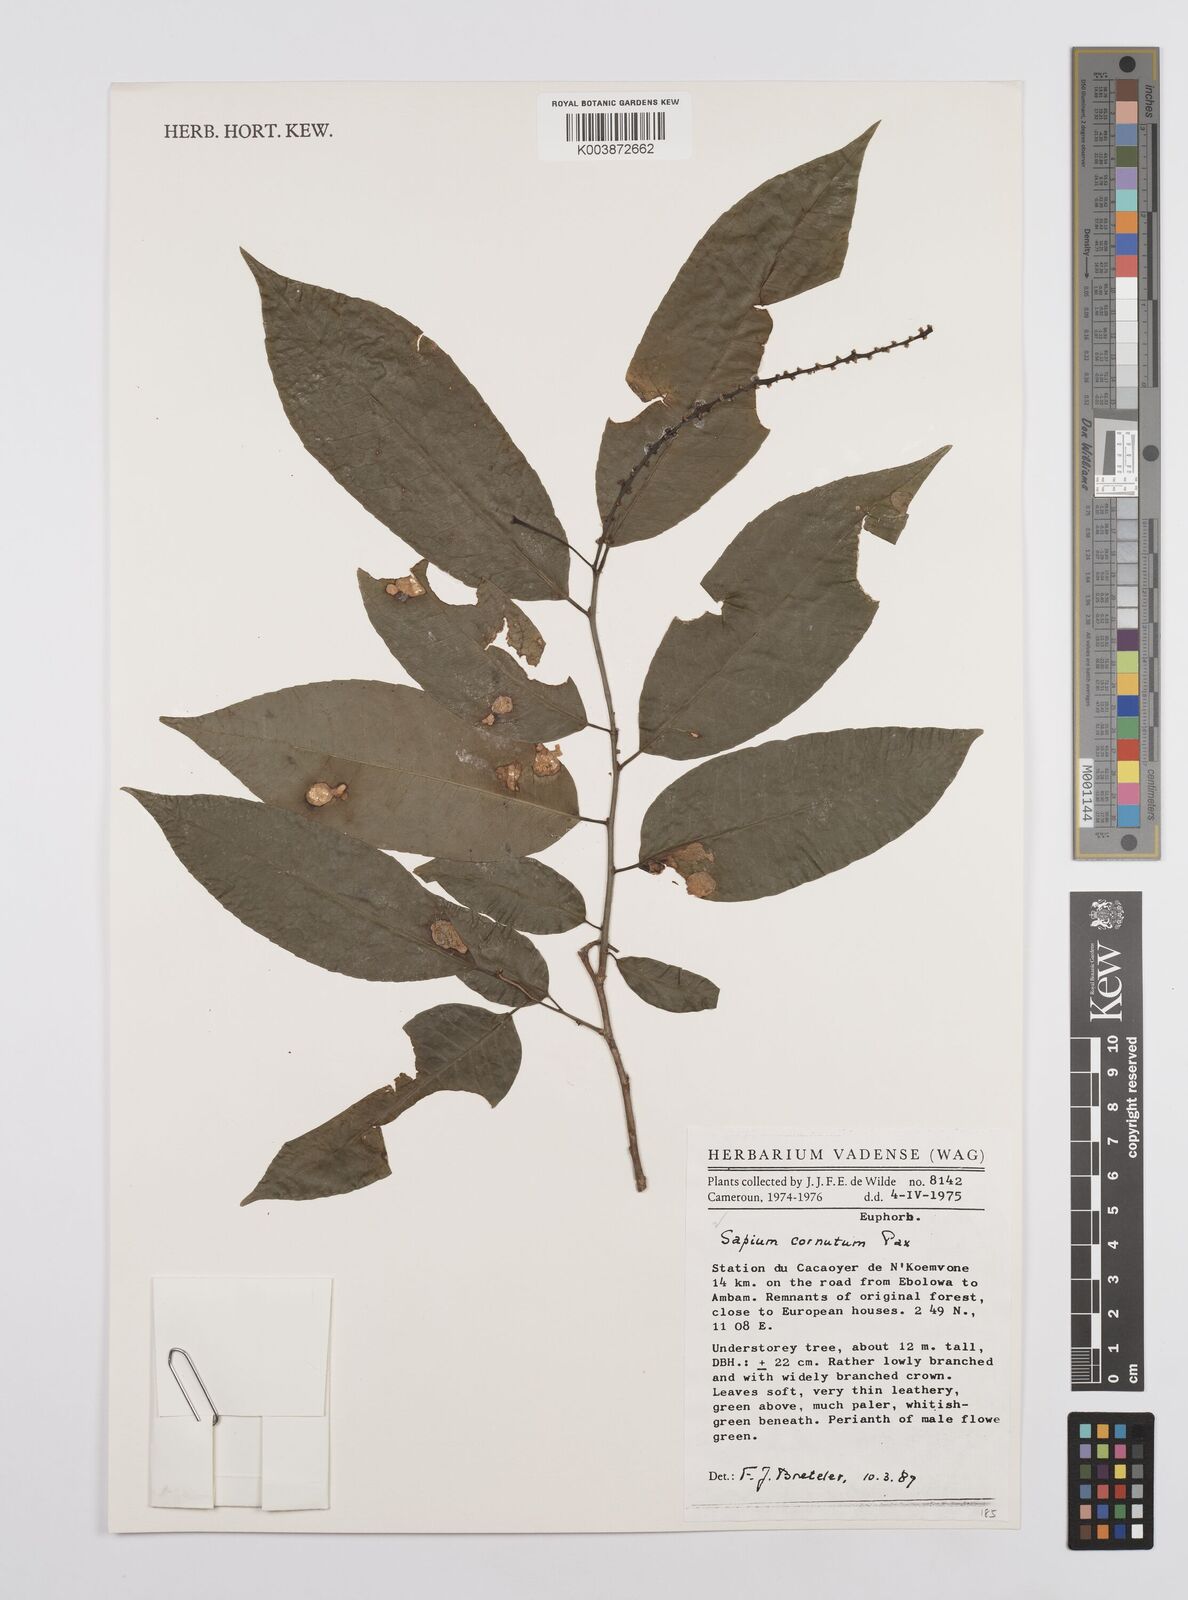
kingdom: Plantae
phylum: Tracheophyta
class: Magnoliopsida
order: Malpighiales
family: Euphorbiaceae
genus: Sclerocroton
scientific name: Sclerocroton cornutus
